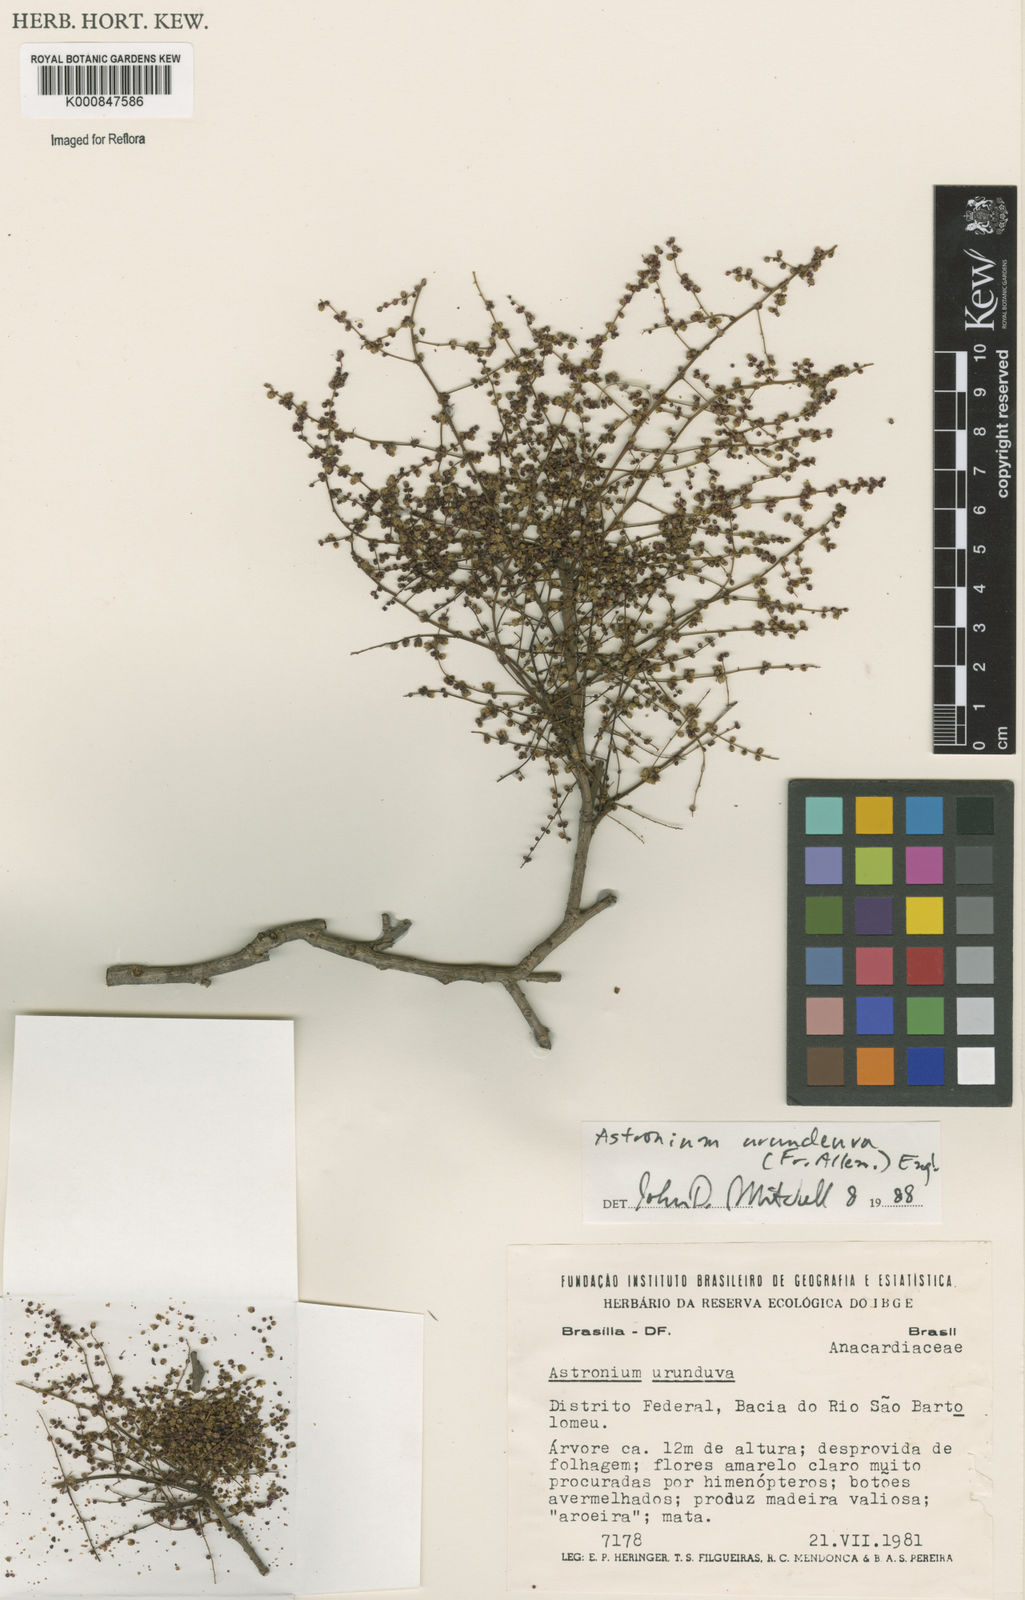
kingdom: Plantae
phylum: Tracheophyta
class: Magnoliopsida
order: Sapindales
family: Anacardiaceae
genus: Astronium
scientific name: Astronium
